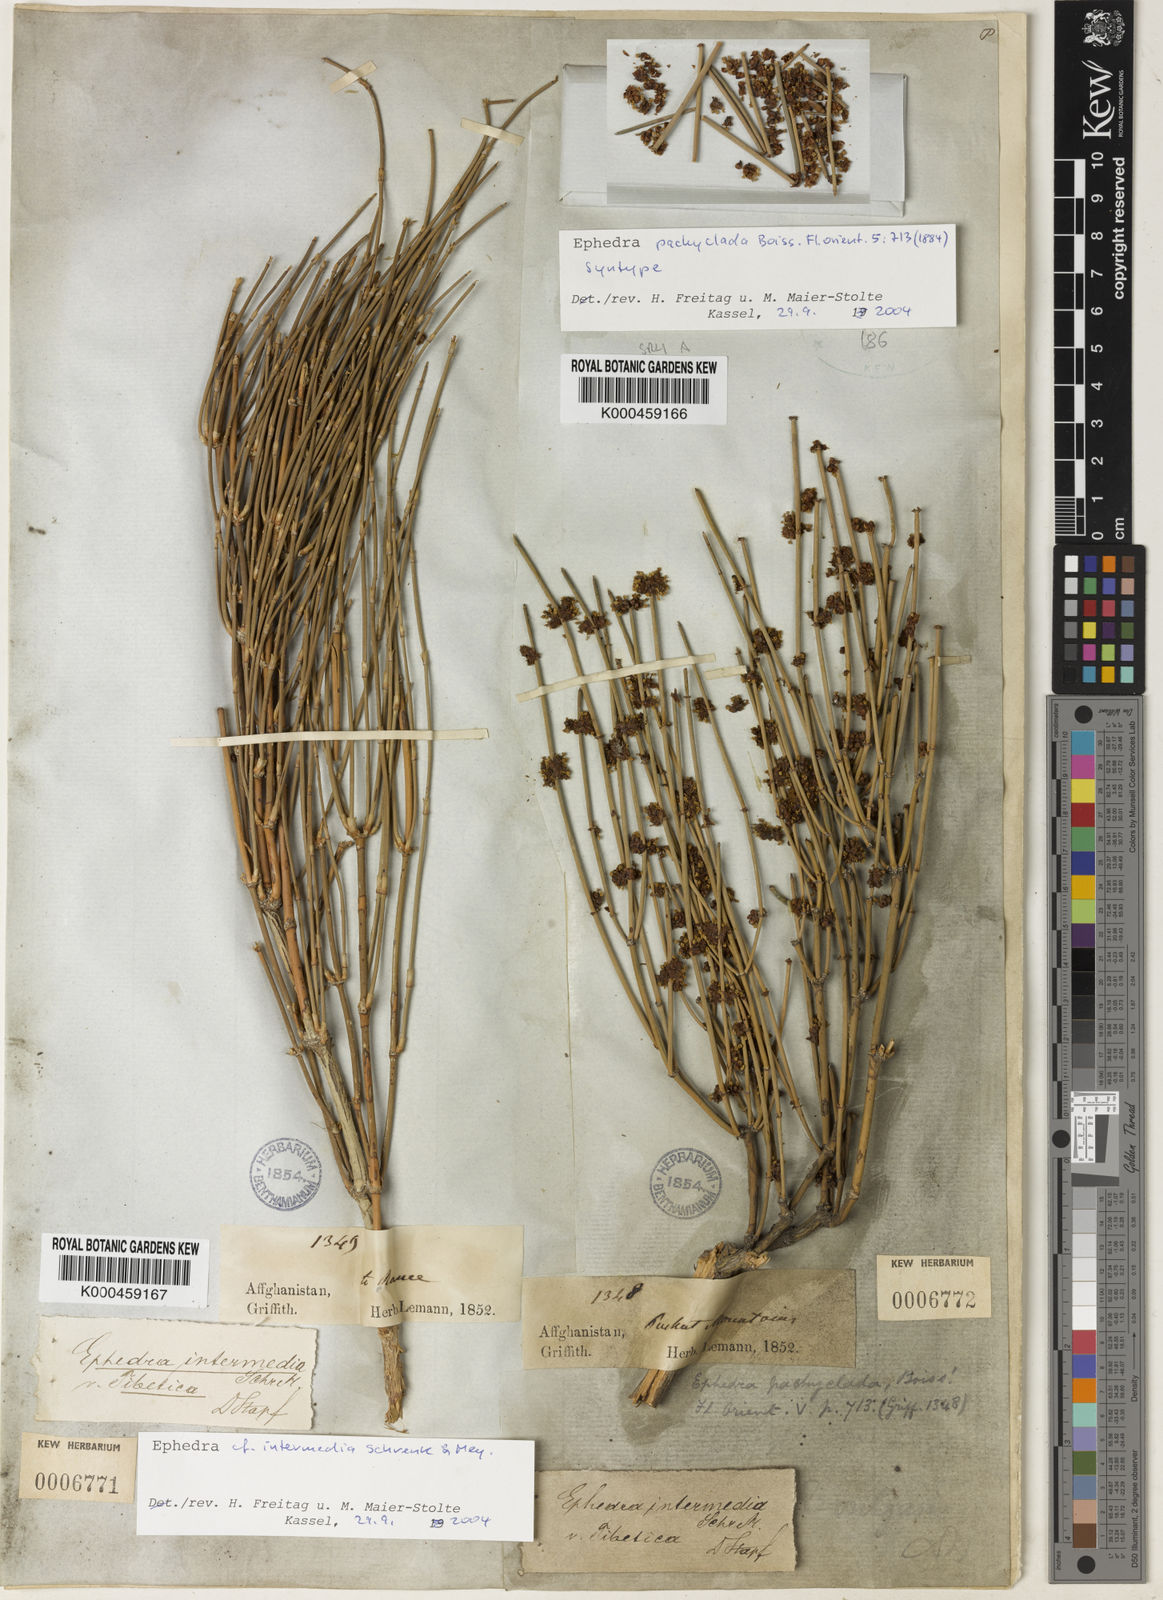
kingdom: Plantae
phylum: Tracheophyta
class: Gnetopsida
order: Ephedrales
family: Ephedraceae
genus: Ephedra
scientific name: Ephedra pachyclada
